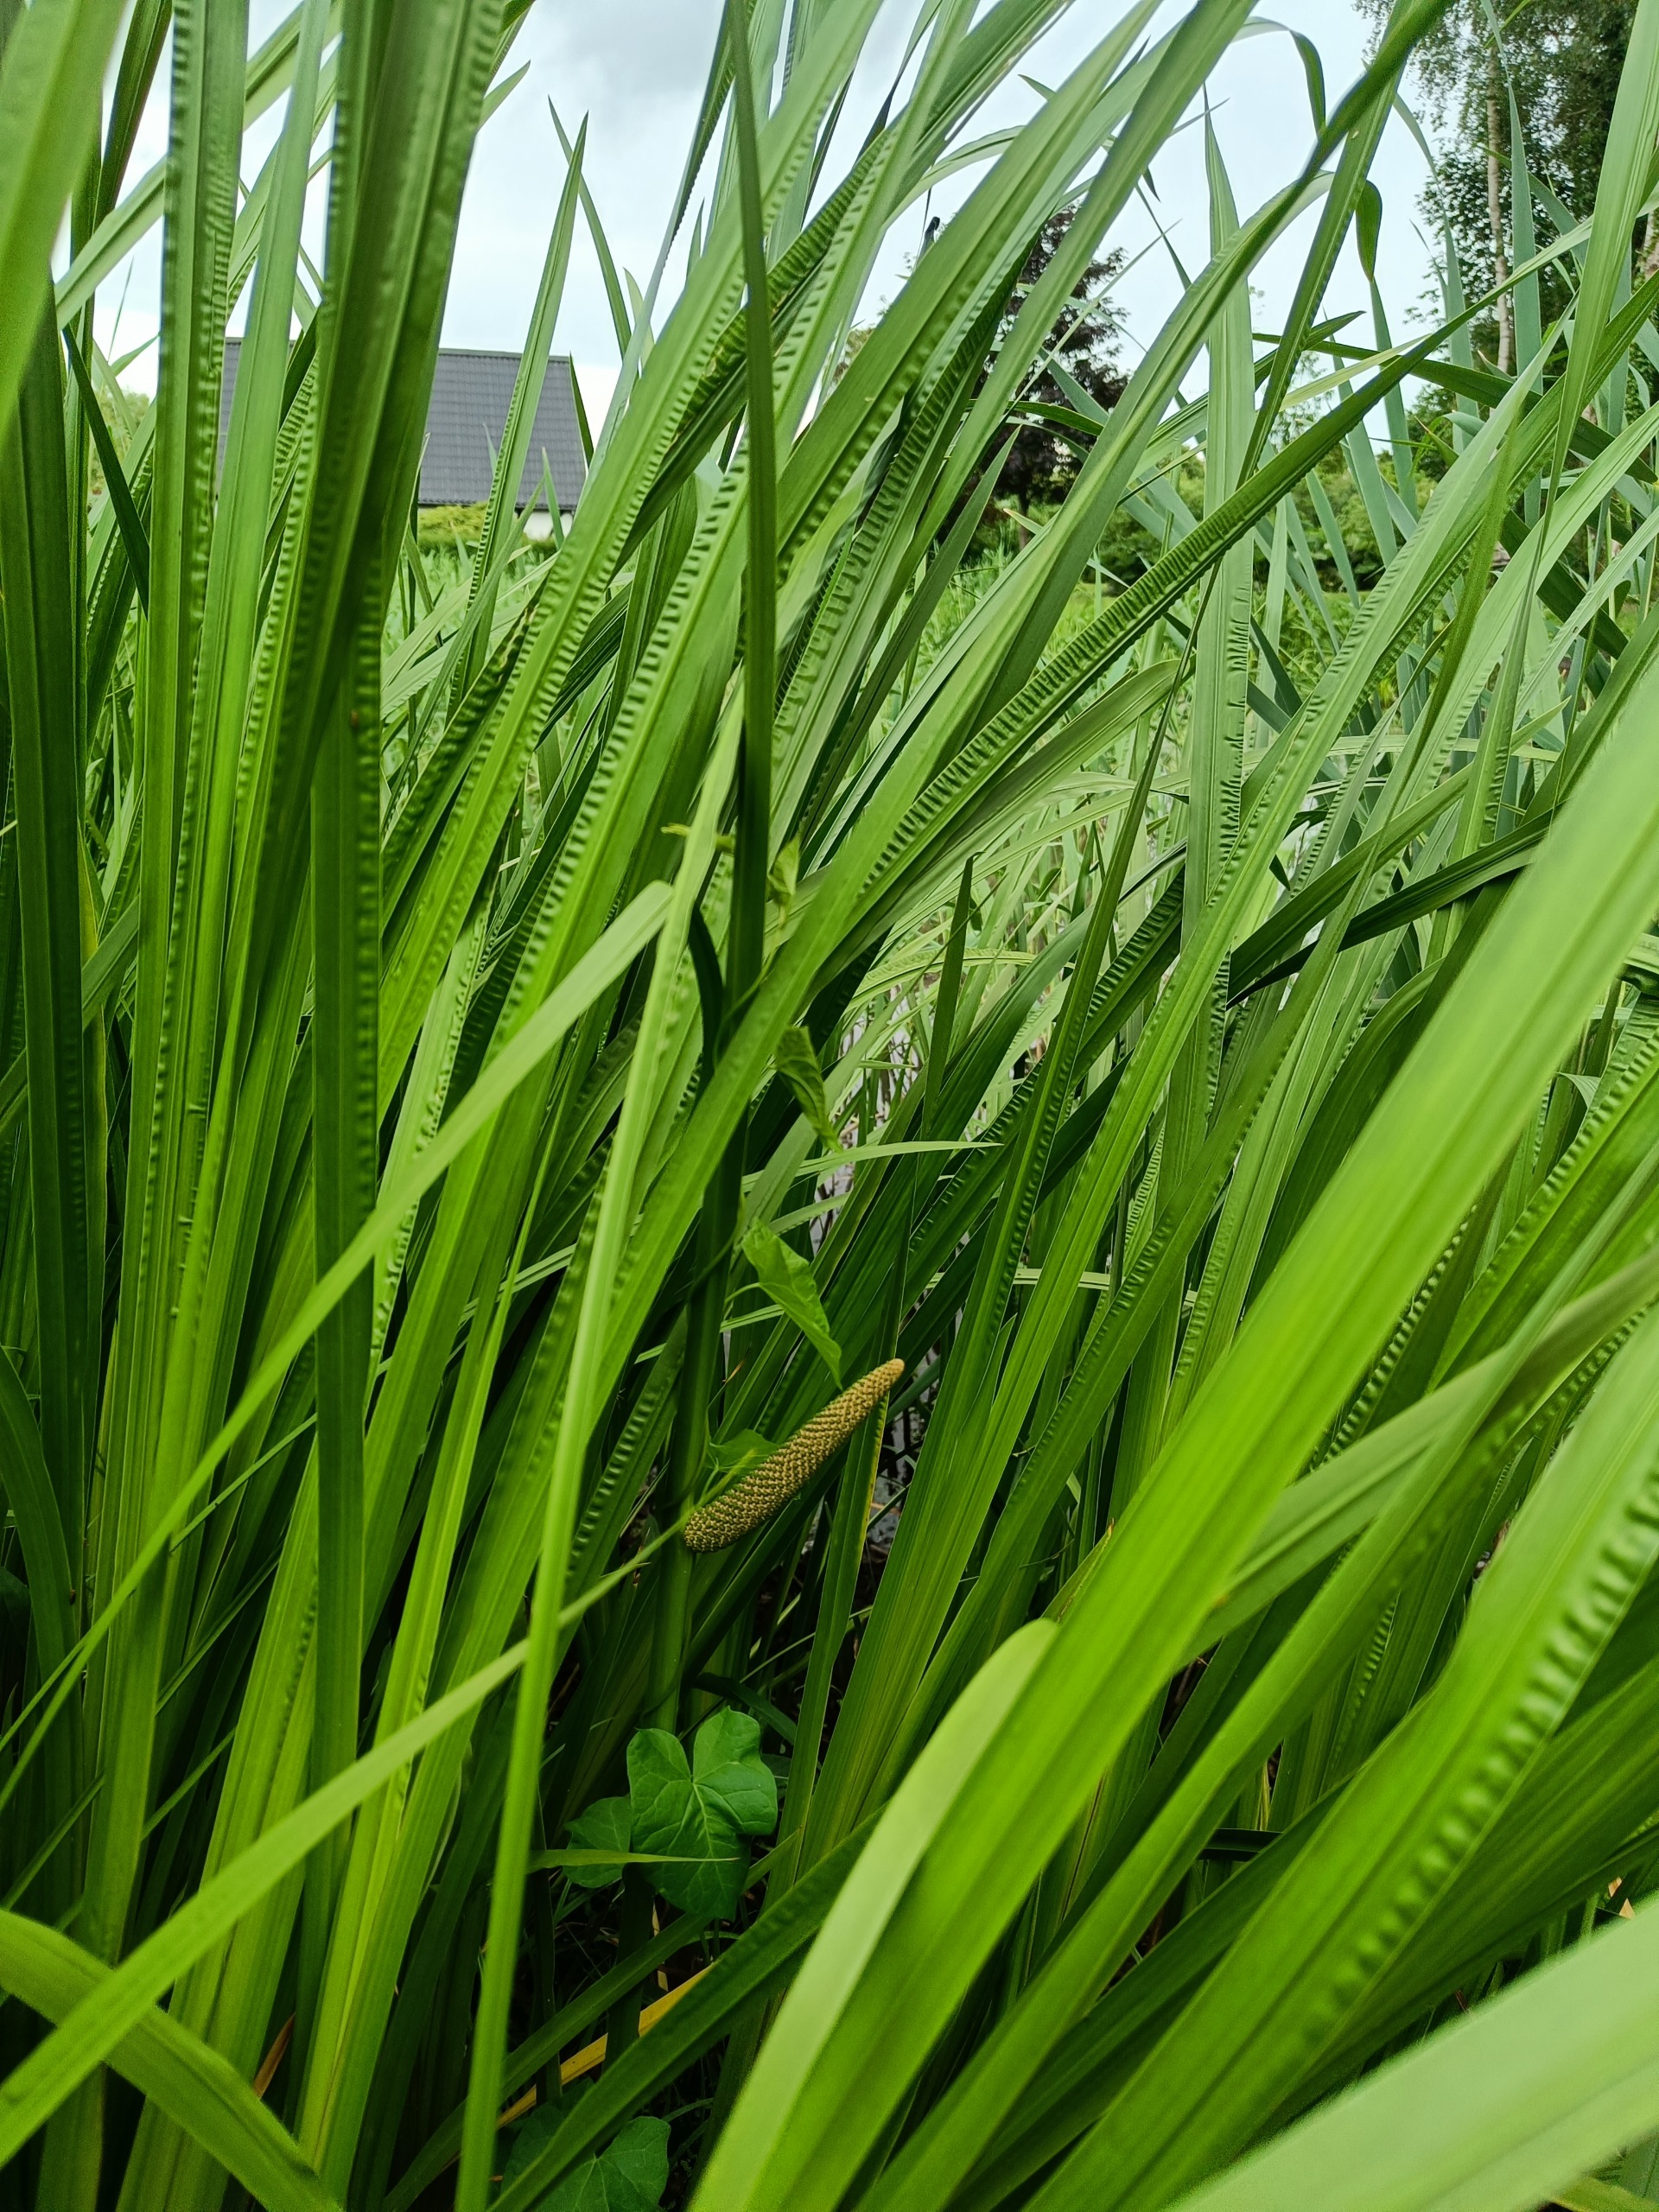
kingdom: Plantae
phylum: Tracheophyta
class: Liliopsida
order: Acorales
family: Acoraceae
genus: Acorus
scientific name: Acorus calamus
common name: Kalmus
